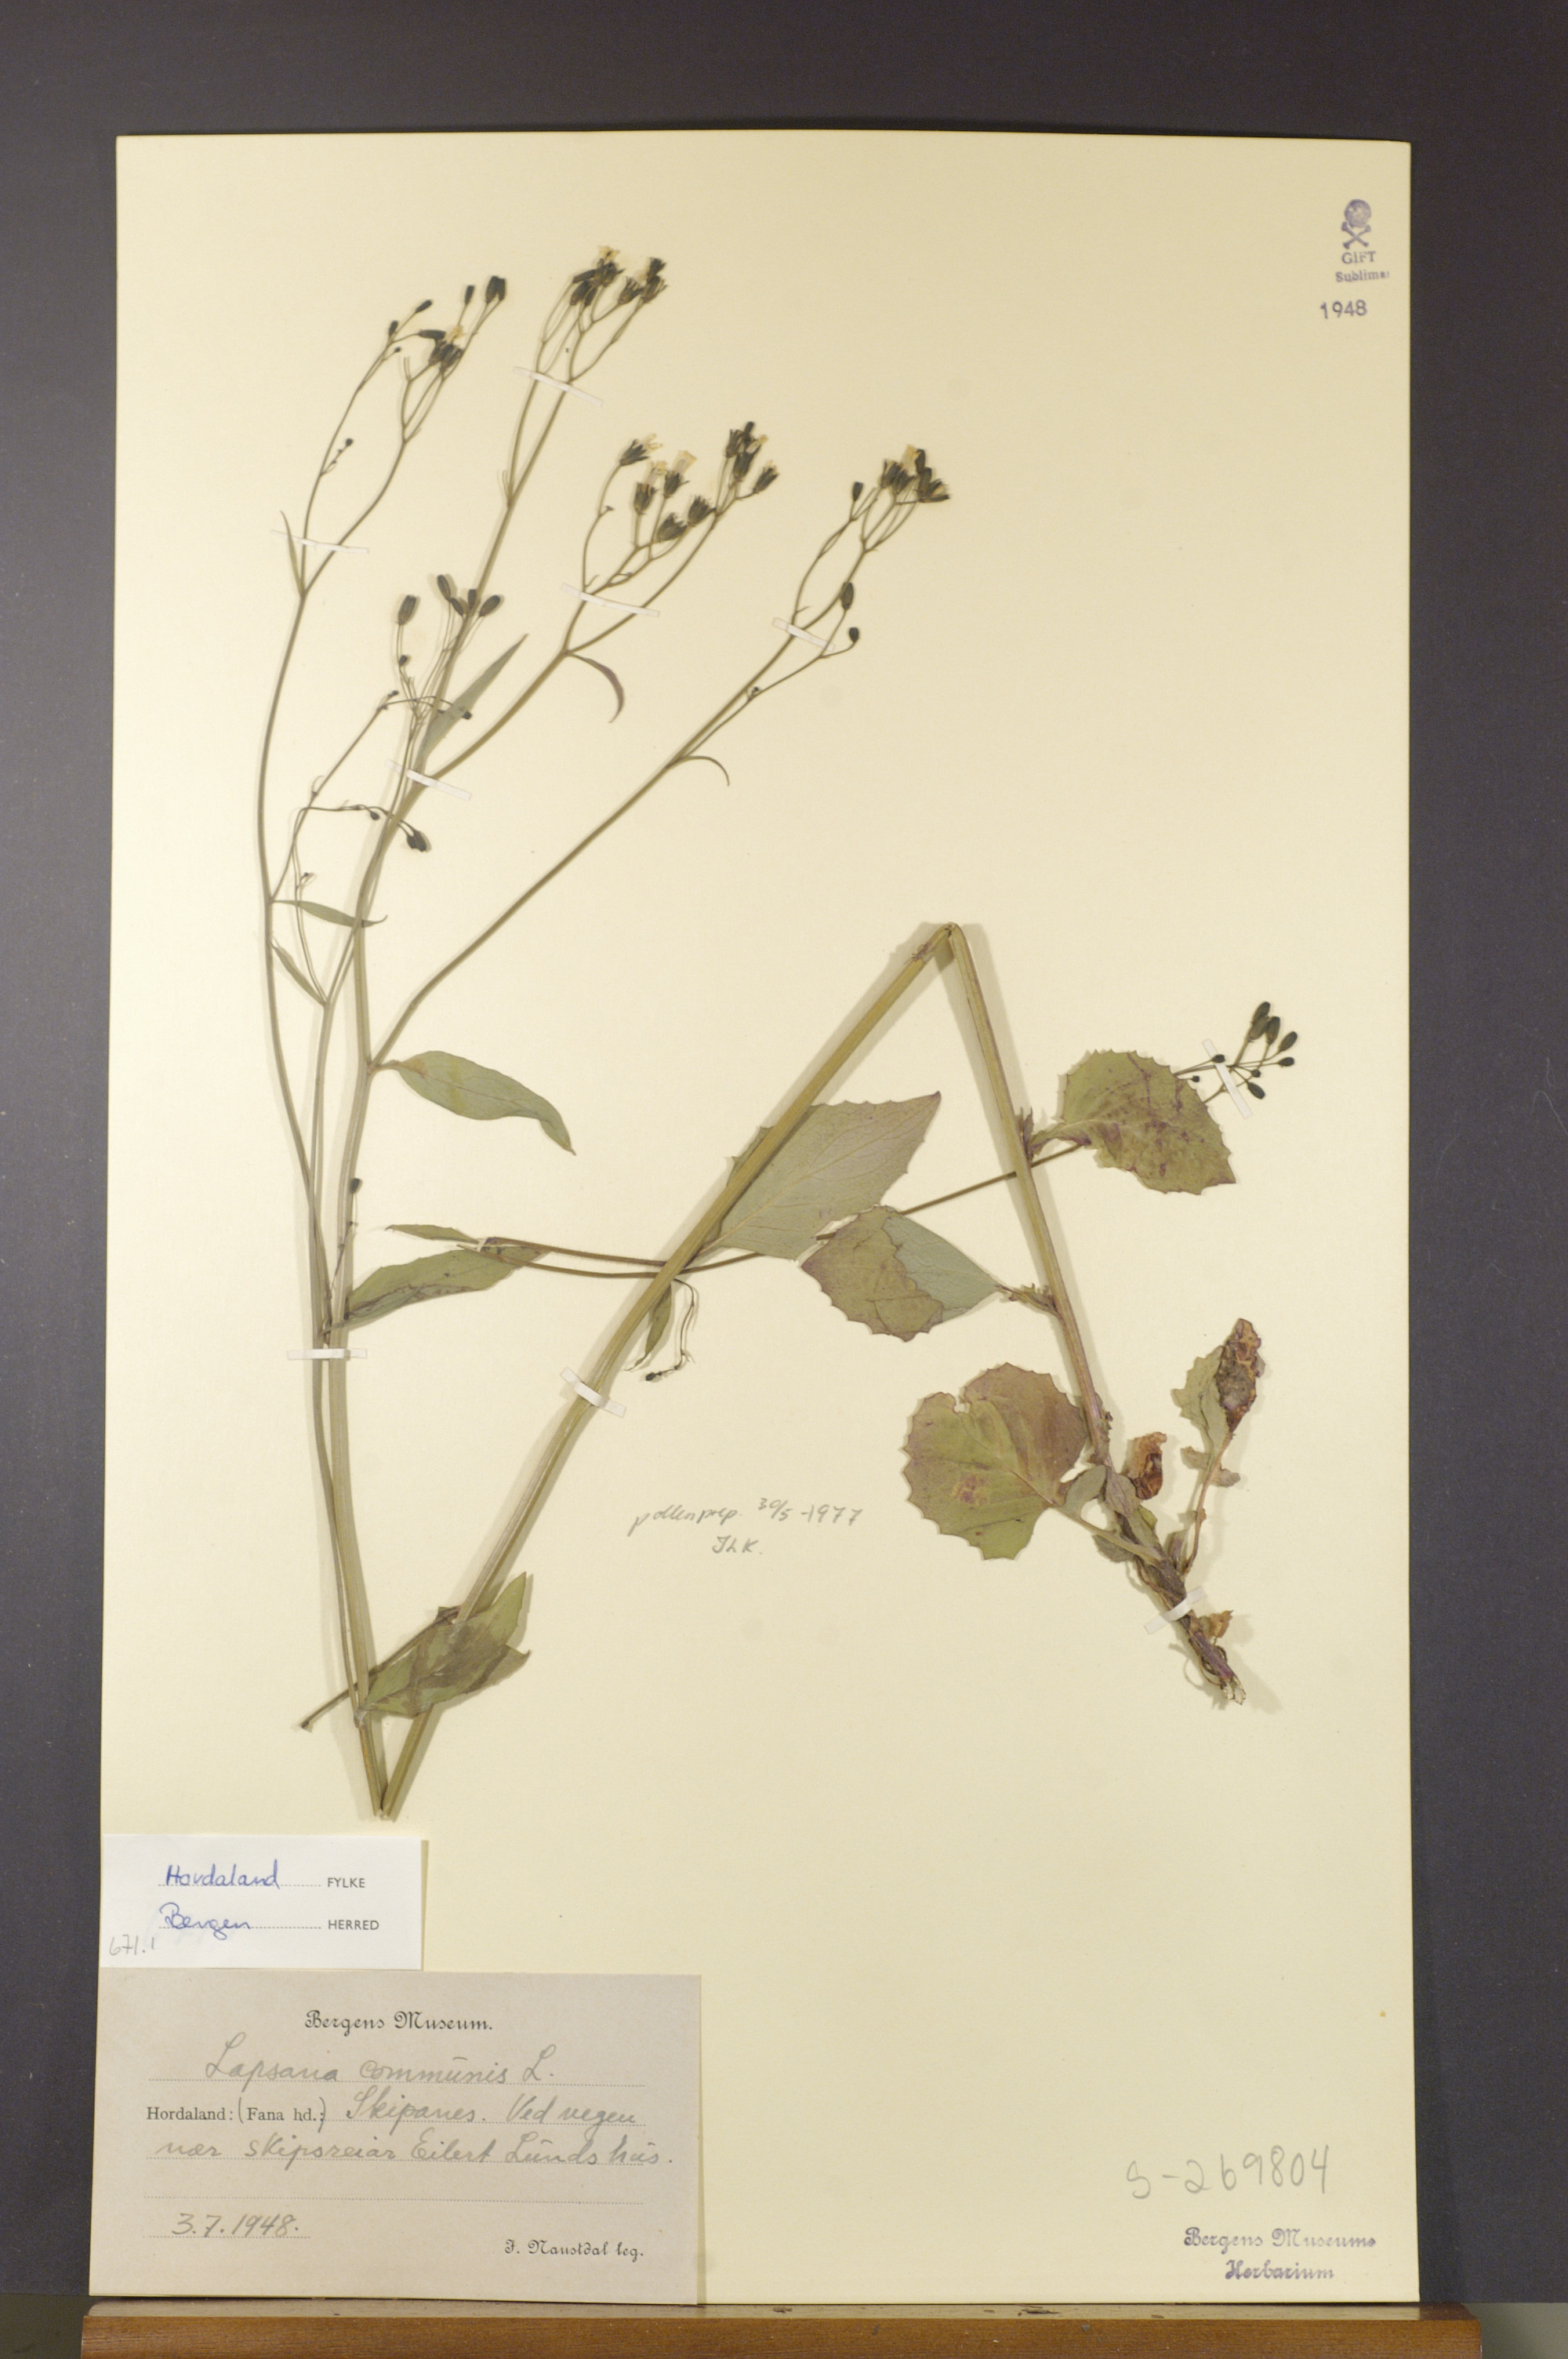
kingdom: Plantae
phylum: Tracheophyta
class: Magnoliopsida
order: Asterales
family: Asteraceae
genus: Lapsana
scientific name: Lapsana communis
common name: Nipplewort
